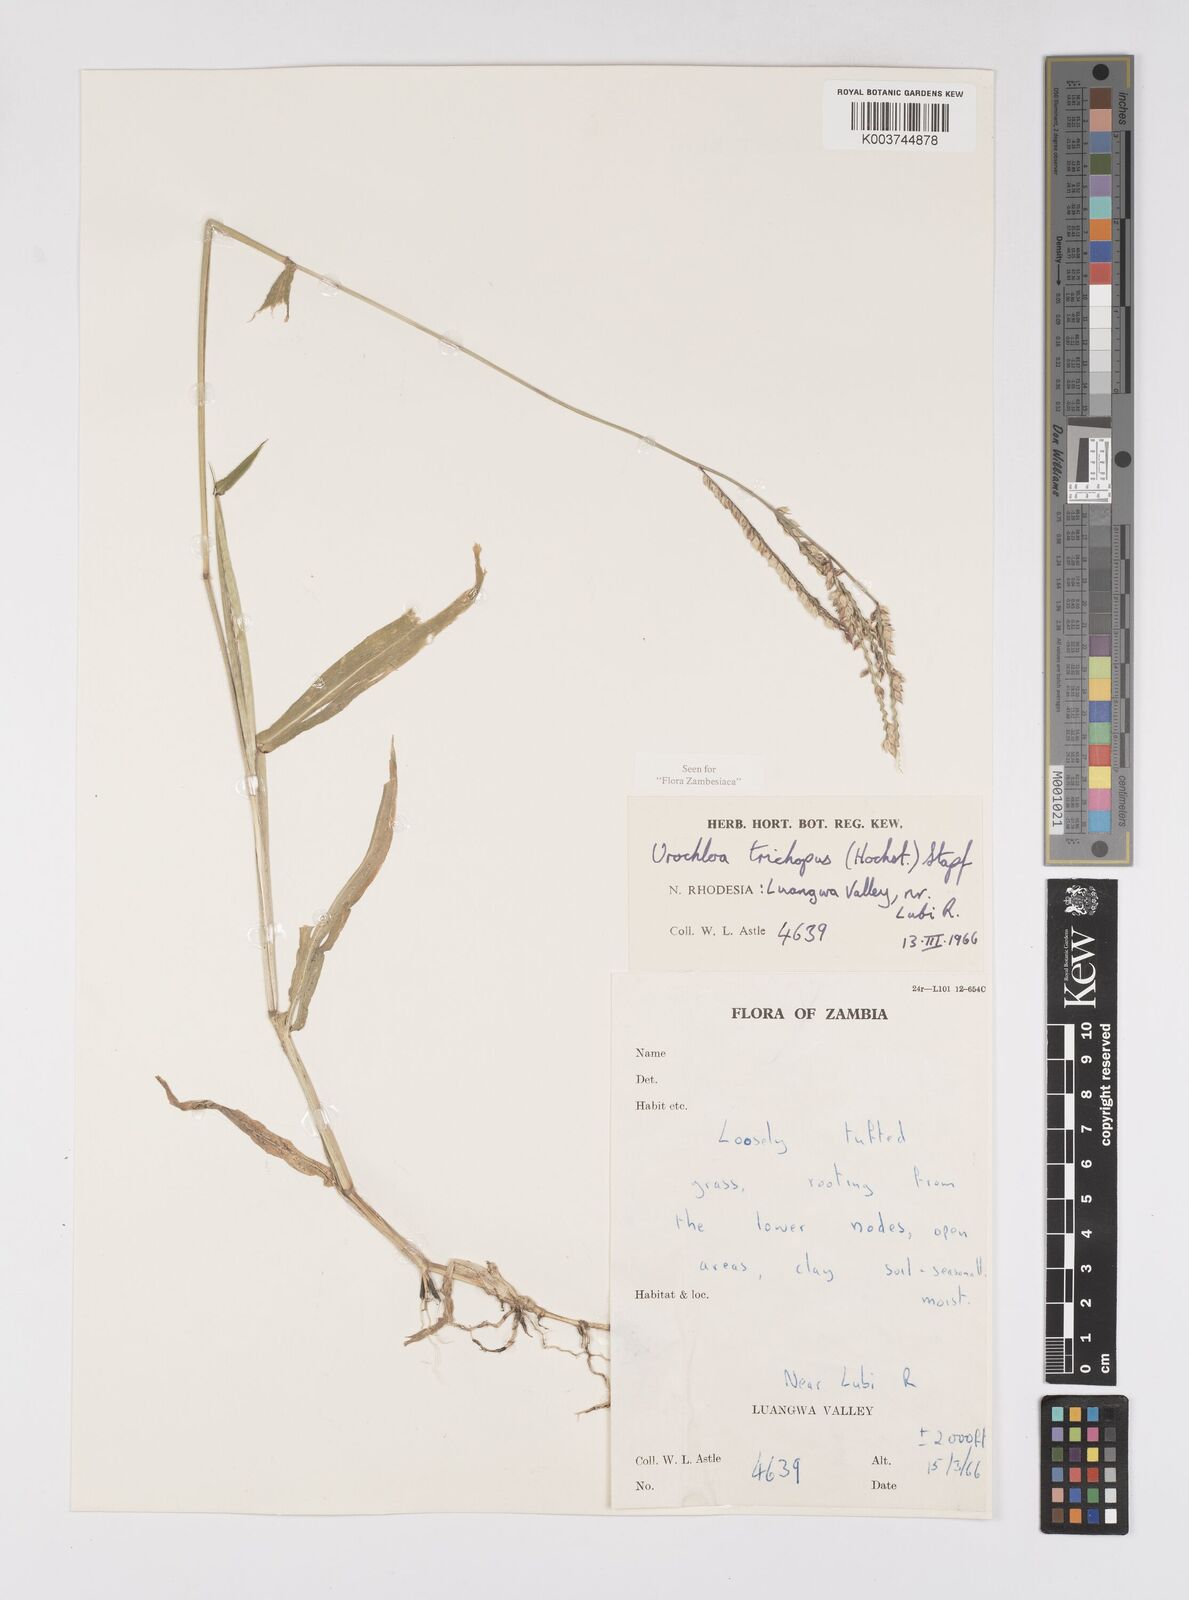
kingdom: Plantae
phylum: Tracheophyta
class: Liliopsida
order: Poales
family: Poaceae
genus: Urochloa
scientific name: Urochloa trichopus
